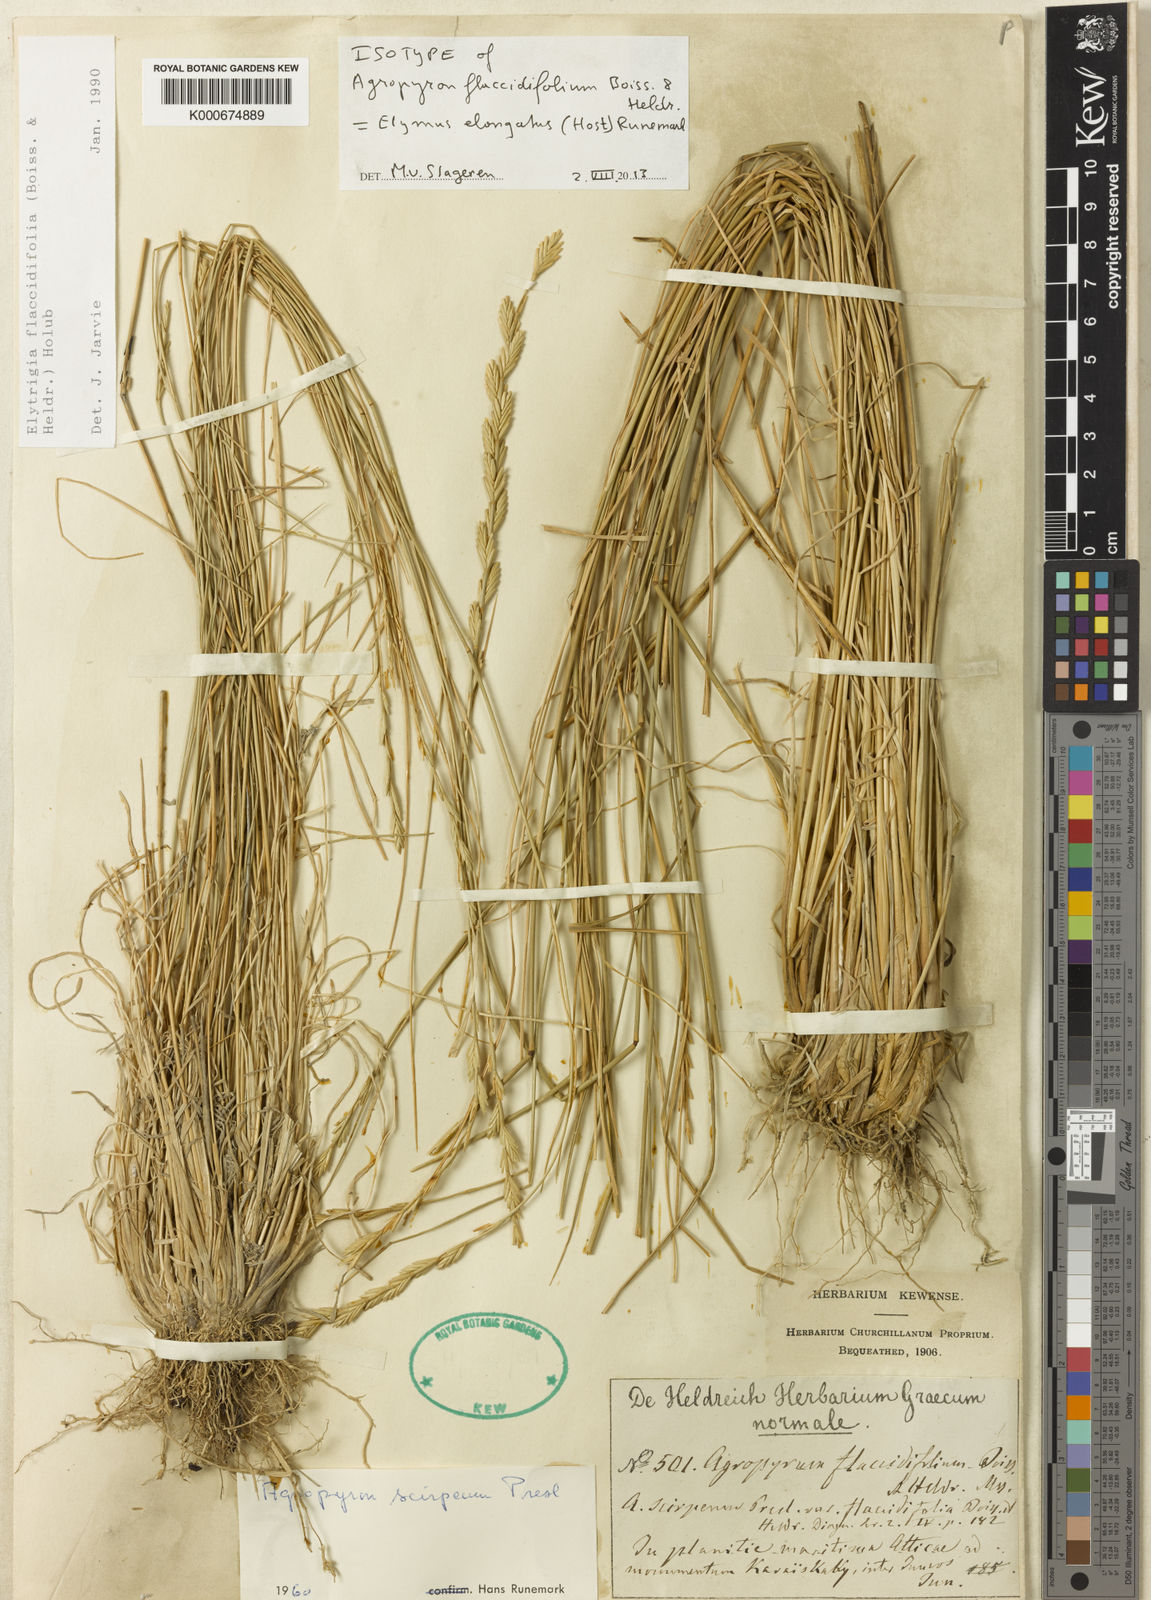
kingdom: Plantae
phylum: Tracheophyta
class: Liliopsida
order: Poales
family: Poaceae
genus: Thinopyrum
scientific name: Thinopyrum flaccidifolium
